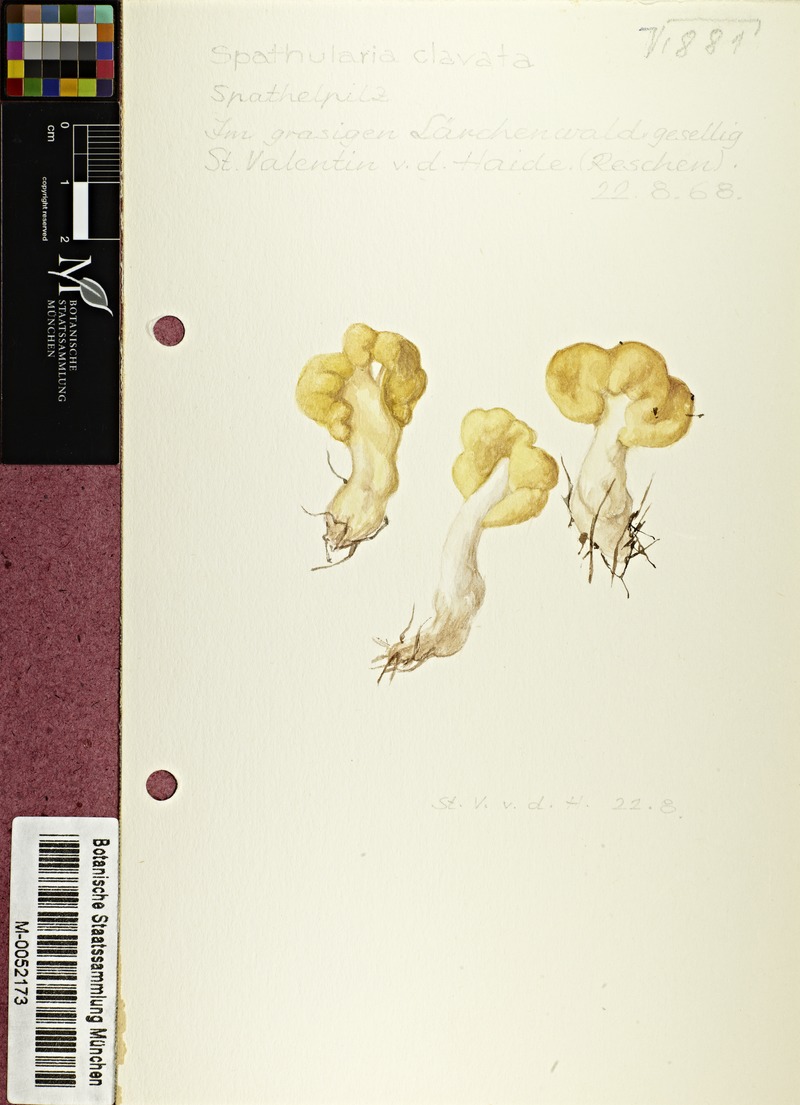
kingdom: Fungi
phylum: Ascomycota
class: Leotiomycetes
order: Rhytismatales
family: Cudoniaceae
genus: Spathularia
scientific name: Spathularia flavida
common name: Yellow fan
